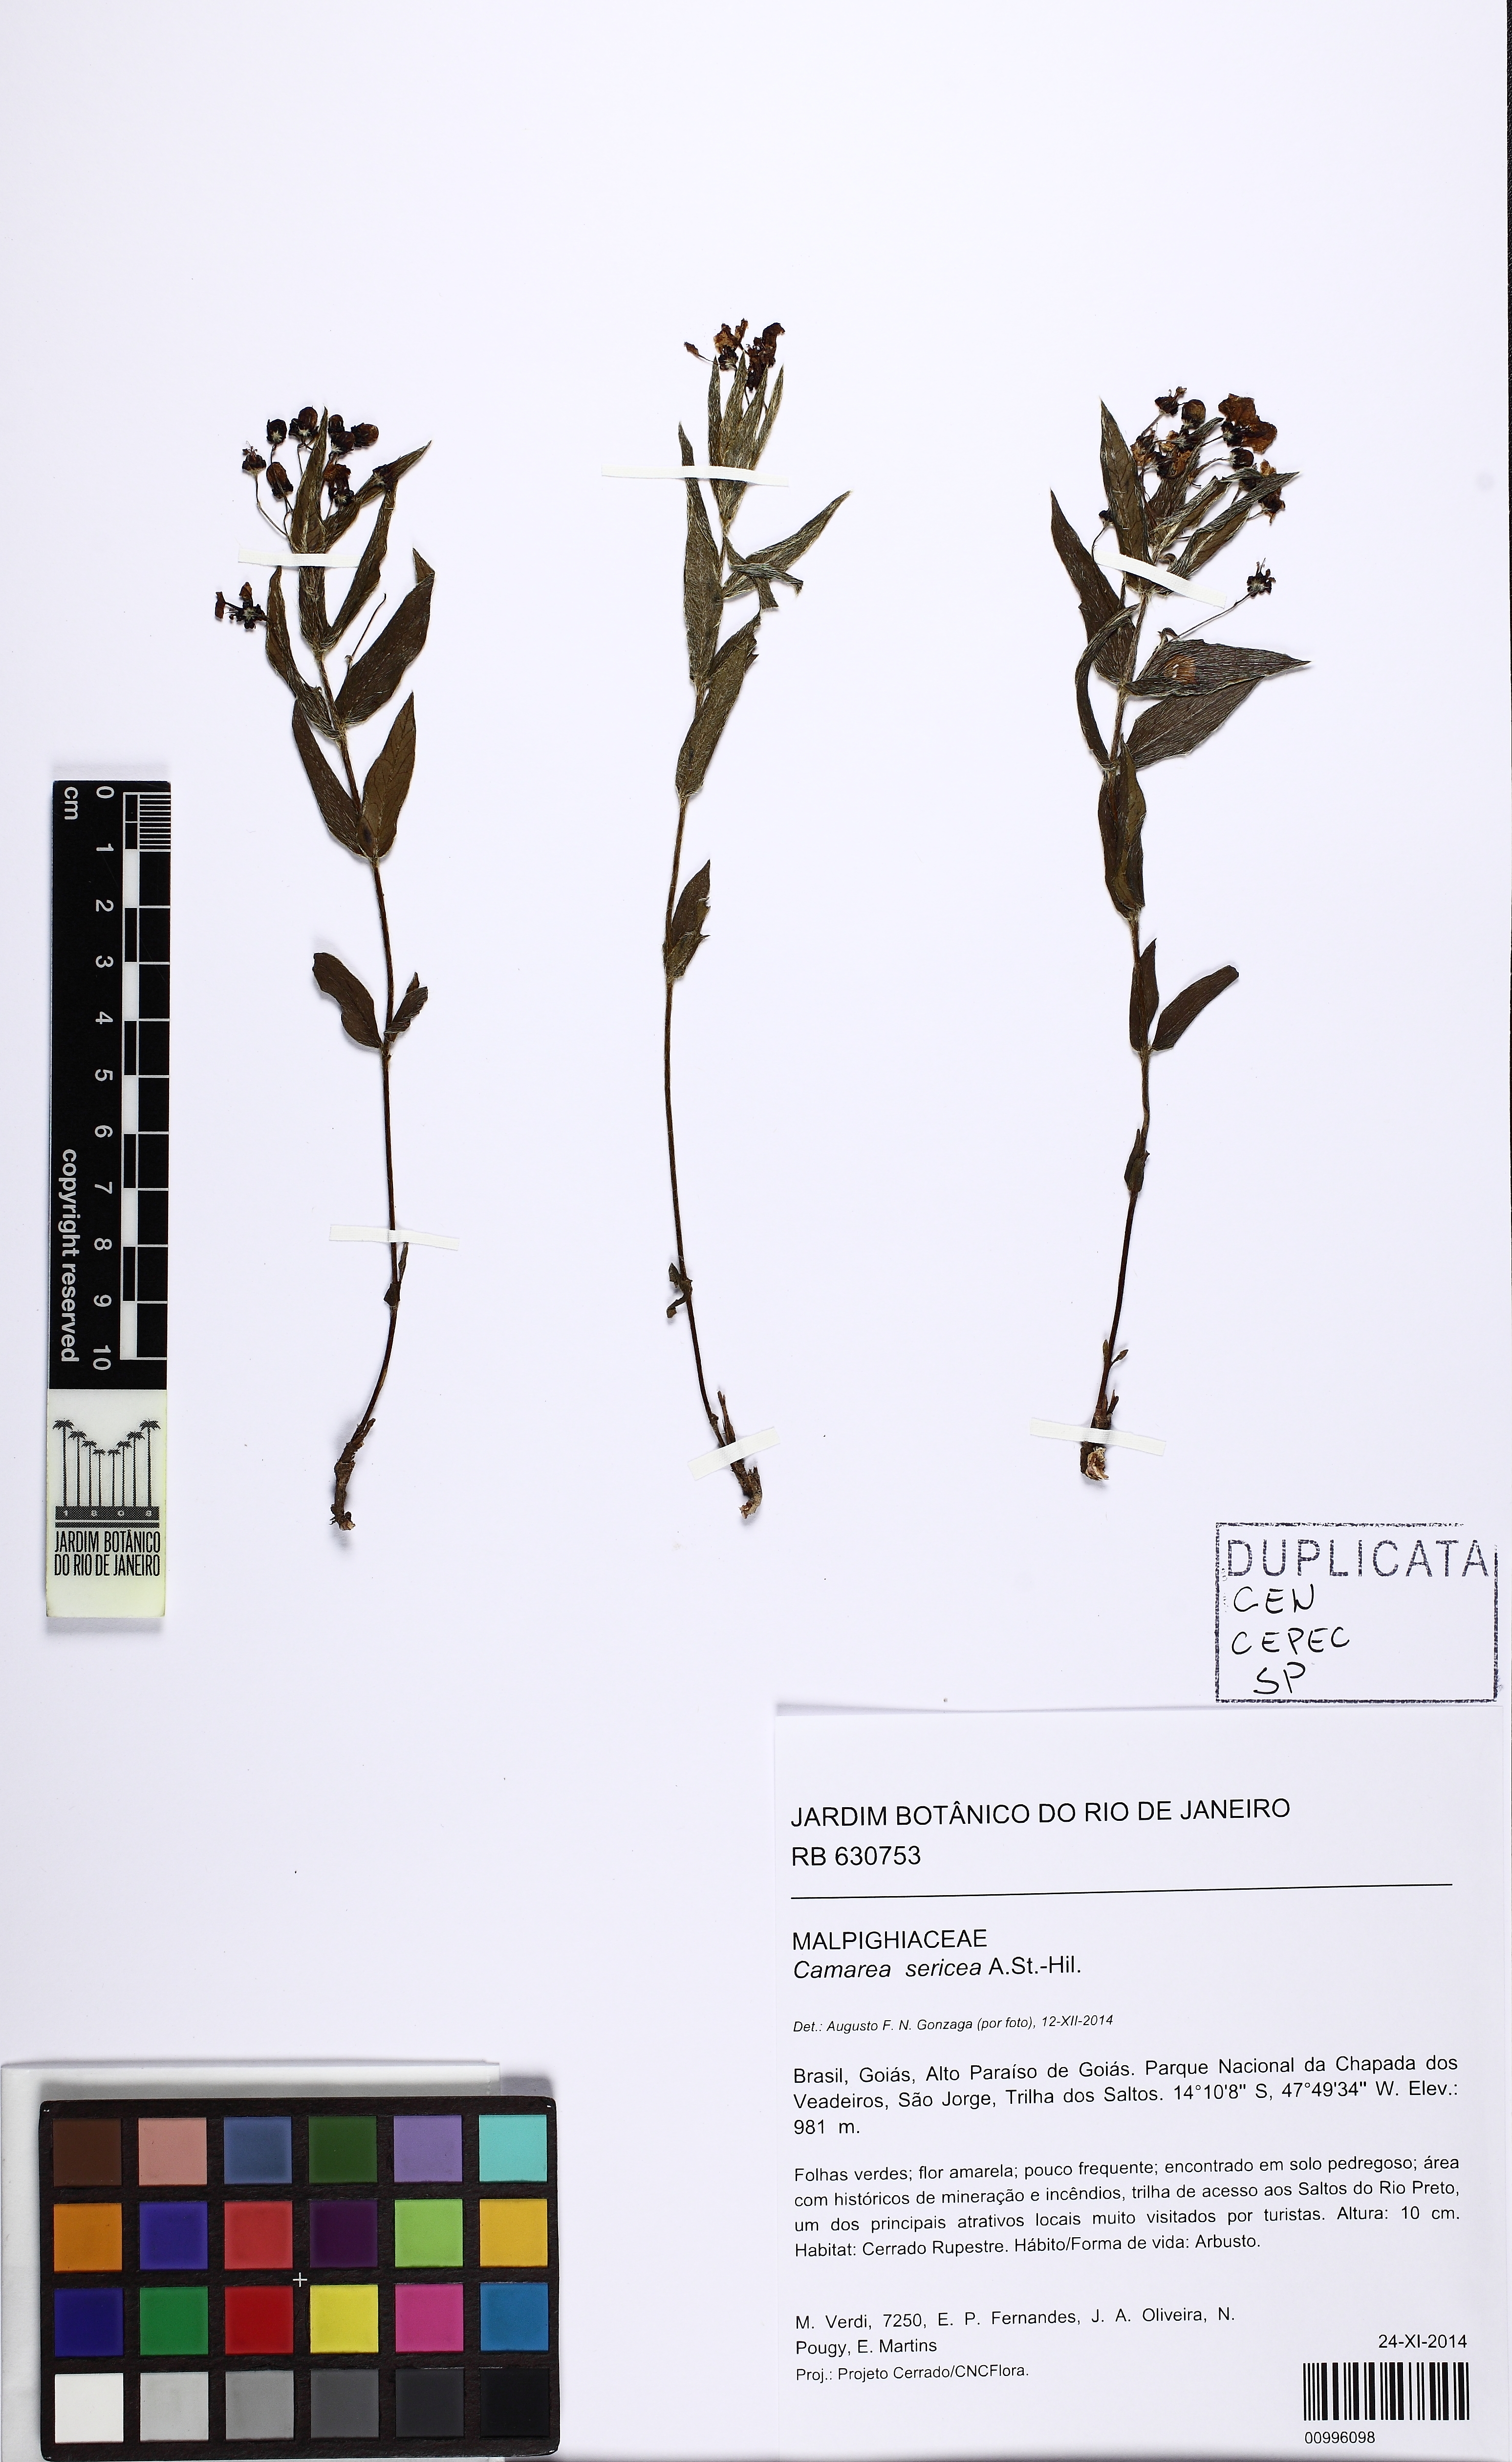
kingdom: Plantae
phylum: Tracheophyta
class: Magnoliopsida
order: Malpighiales
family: Malpighiaceae
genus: Camarea
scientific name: Camarea sericea
